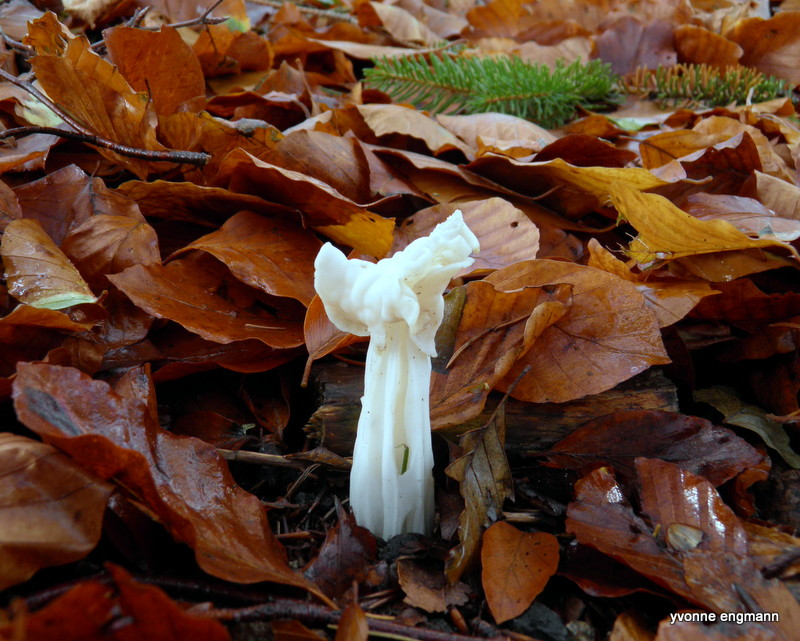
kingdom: Fungi
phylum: Ascomycota
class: Pezizomycetes
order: Pezizales
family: Helvellaceae
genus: Helvella
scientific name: Helvella crispa
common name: kruset foldhat
